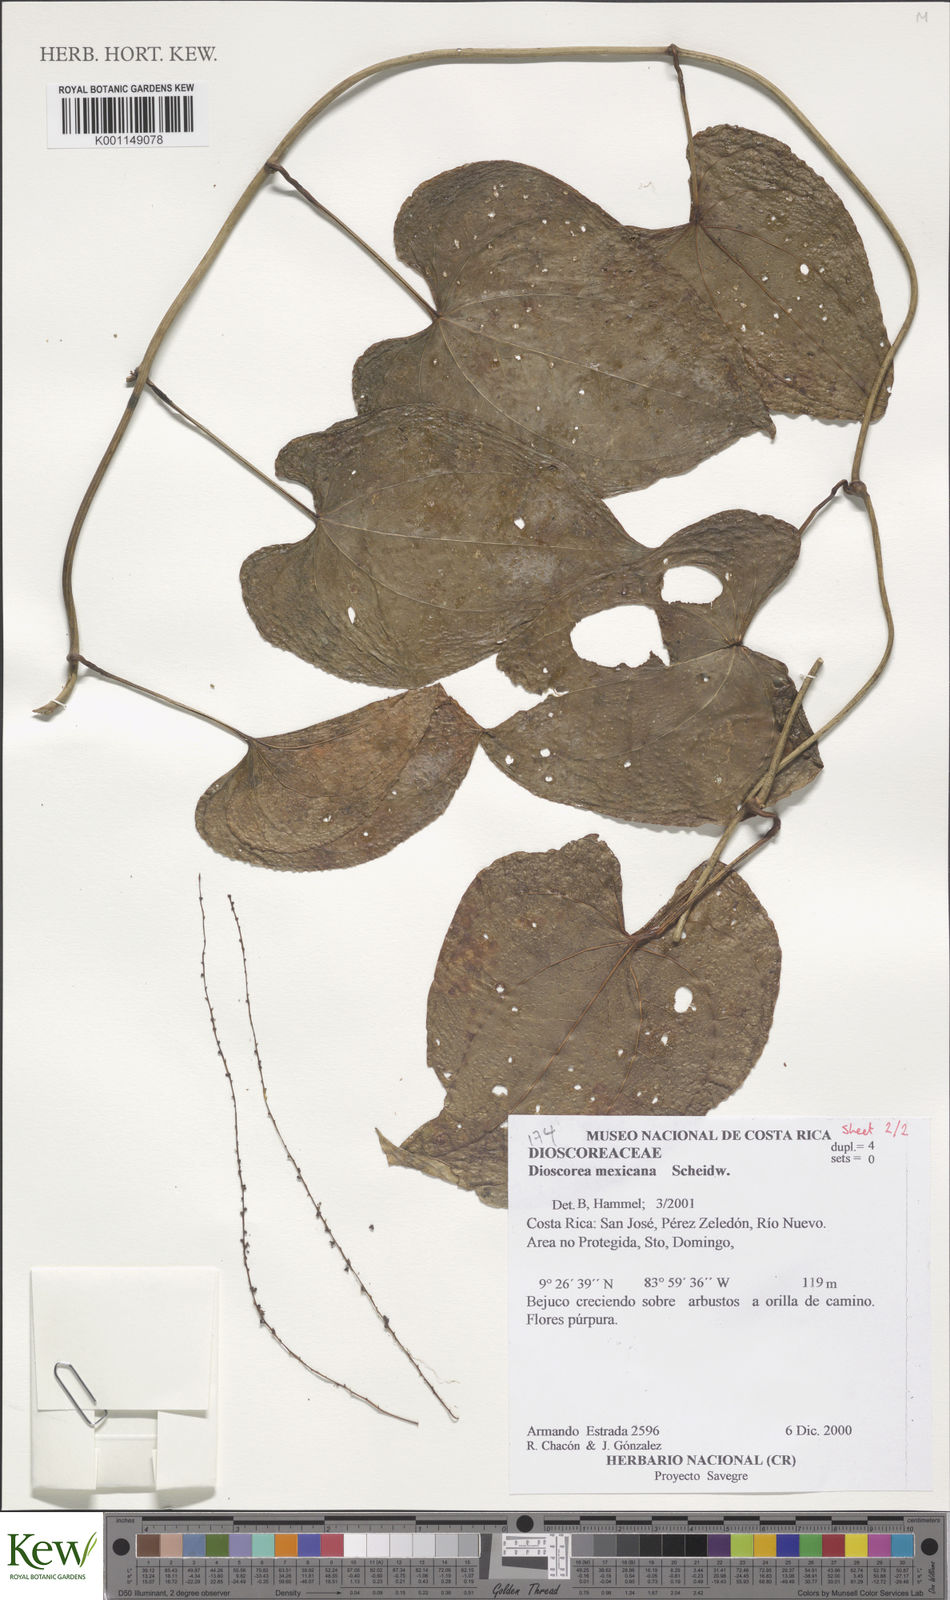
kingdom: Plantae
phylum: Tracheophyta
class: Liliopsida
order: Dioscoreales
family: Dioscoreaceae
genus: Dioscorea
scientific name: Dioscorea mexicana
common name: Mexican yam
